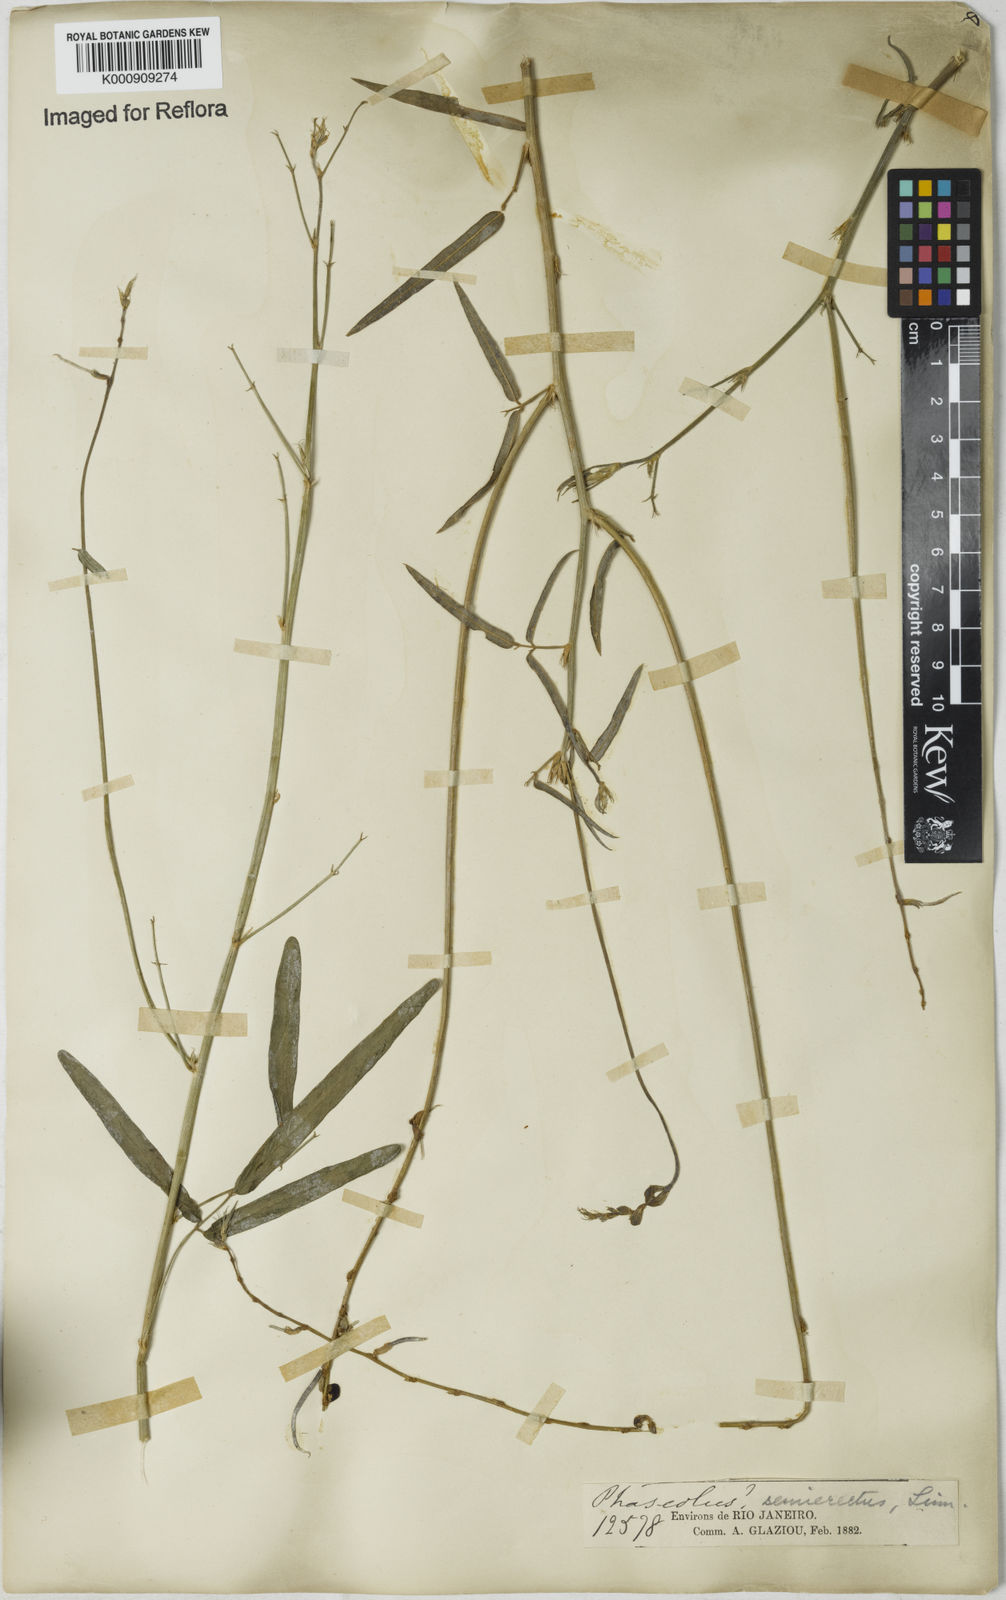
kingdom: Plantae
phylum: Tracheophyta
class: Magnoliopsida
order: Fabales
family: Fabaceae
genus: Macroptilium
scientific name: Macroptilium lathyroides
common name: Wild bushbean
